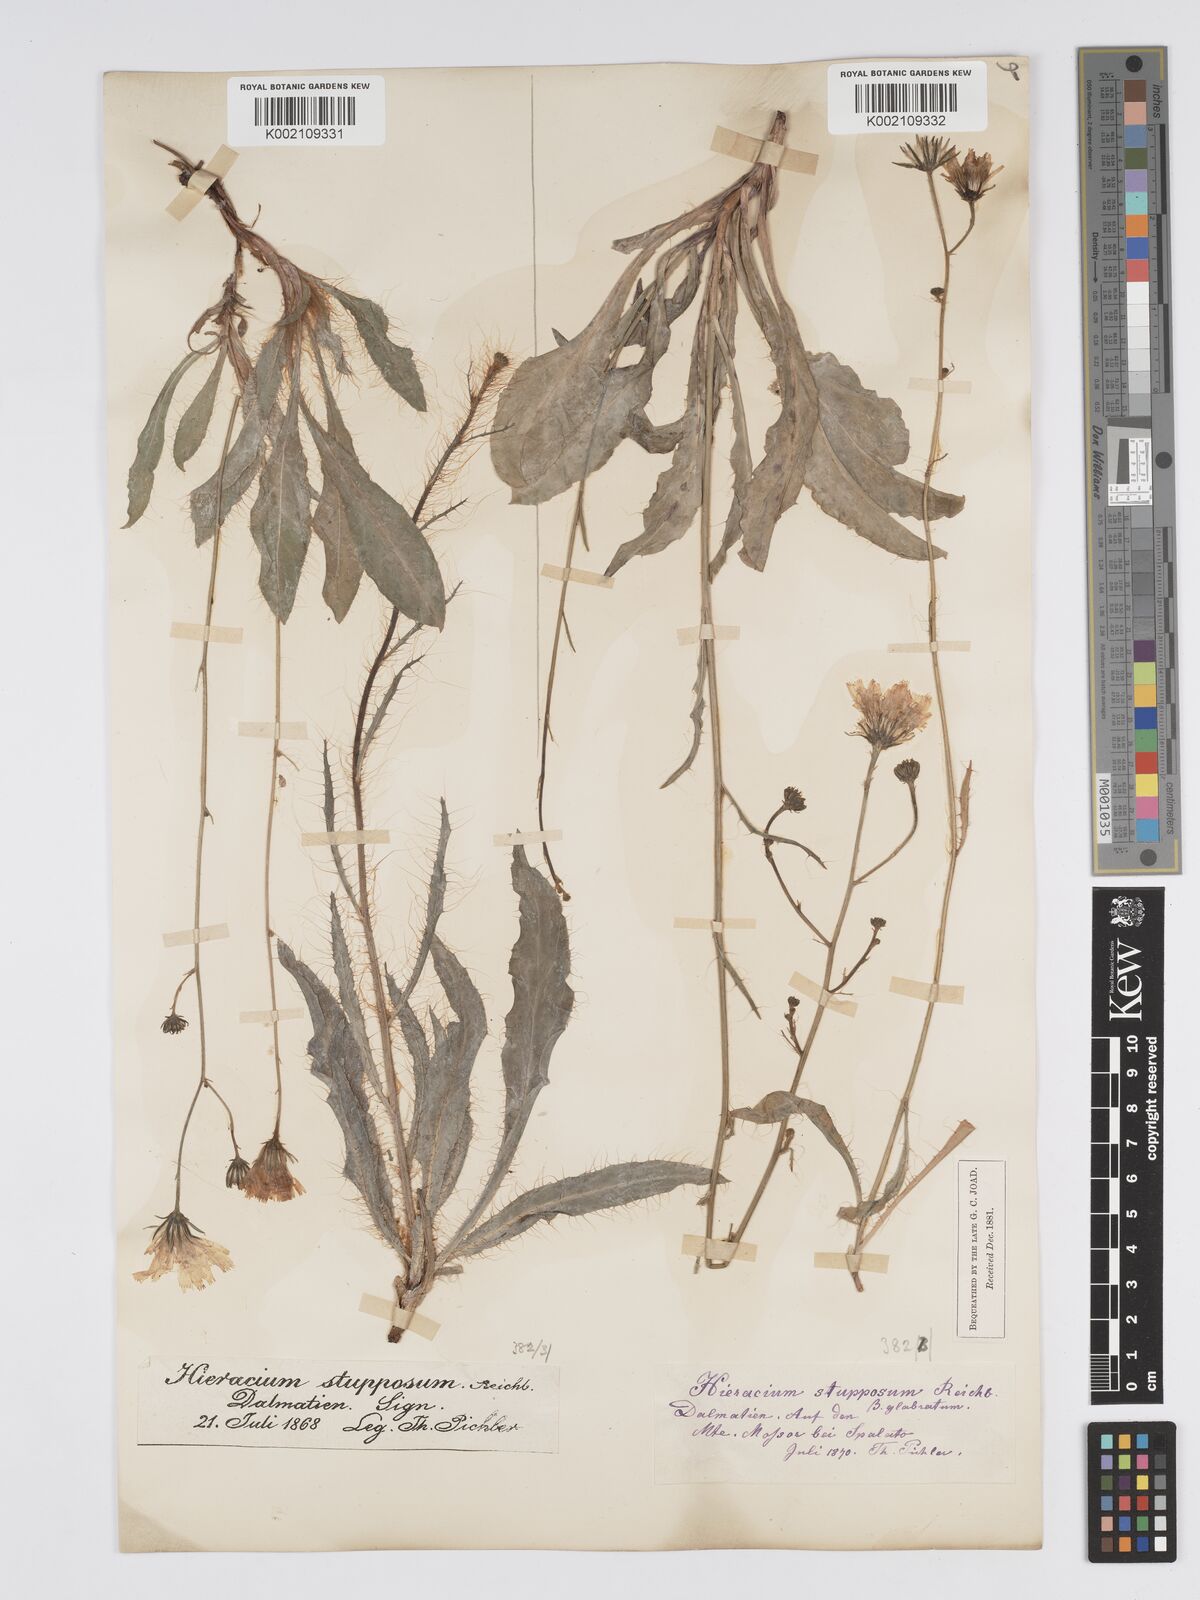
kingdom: Plantae
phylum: Tracheophyta
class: Magnoliopsida
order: Asterales
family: Asteraceae
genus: Hieracium
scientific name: Hieracium heterogynum
